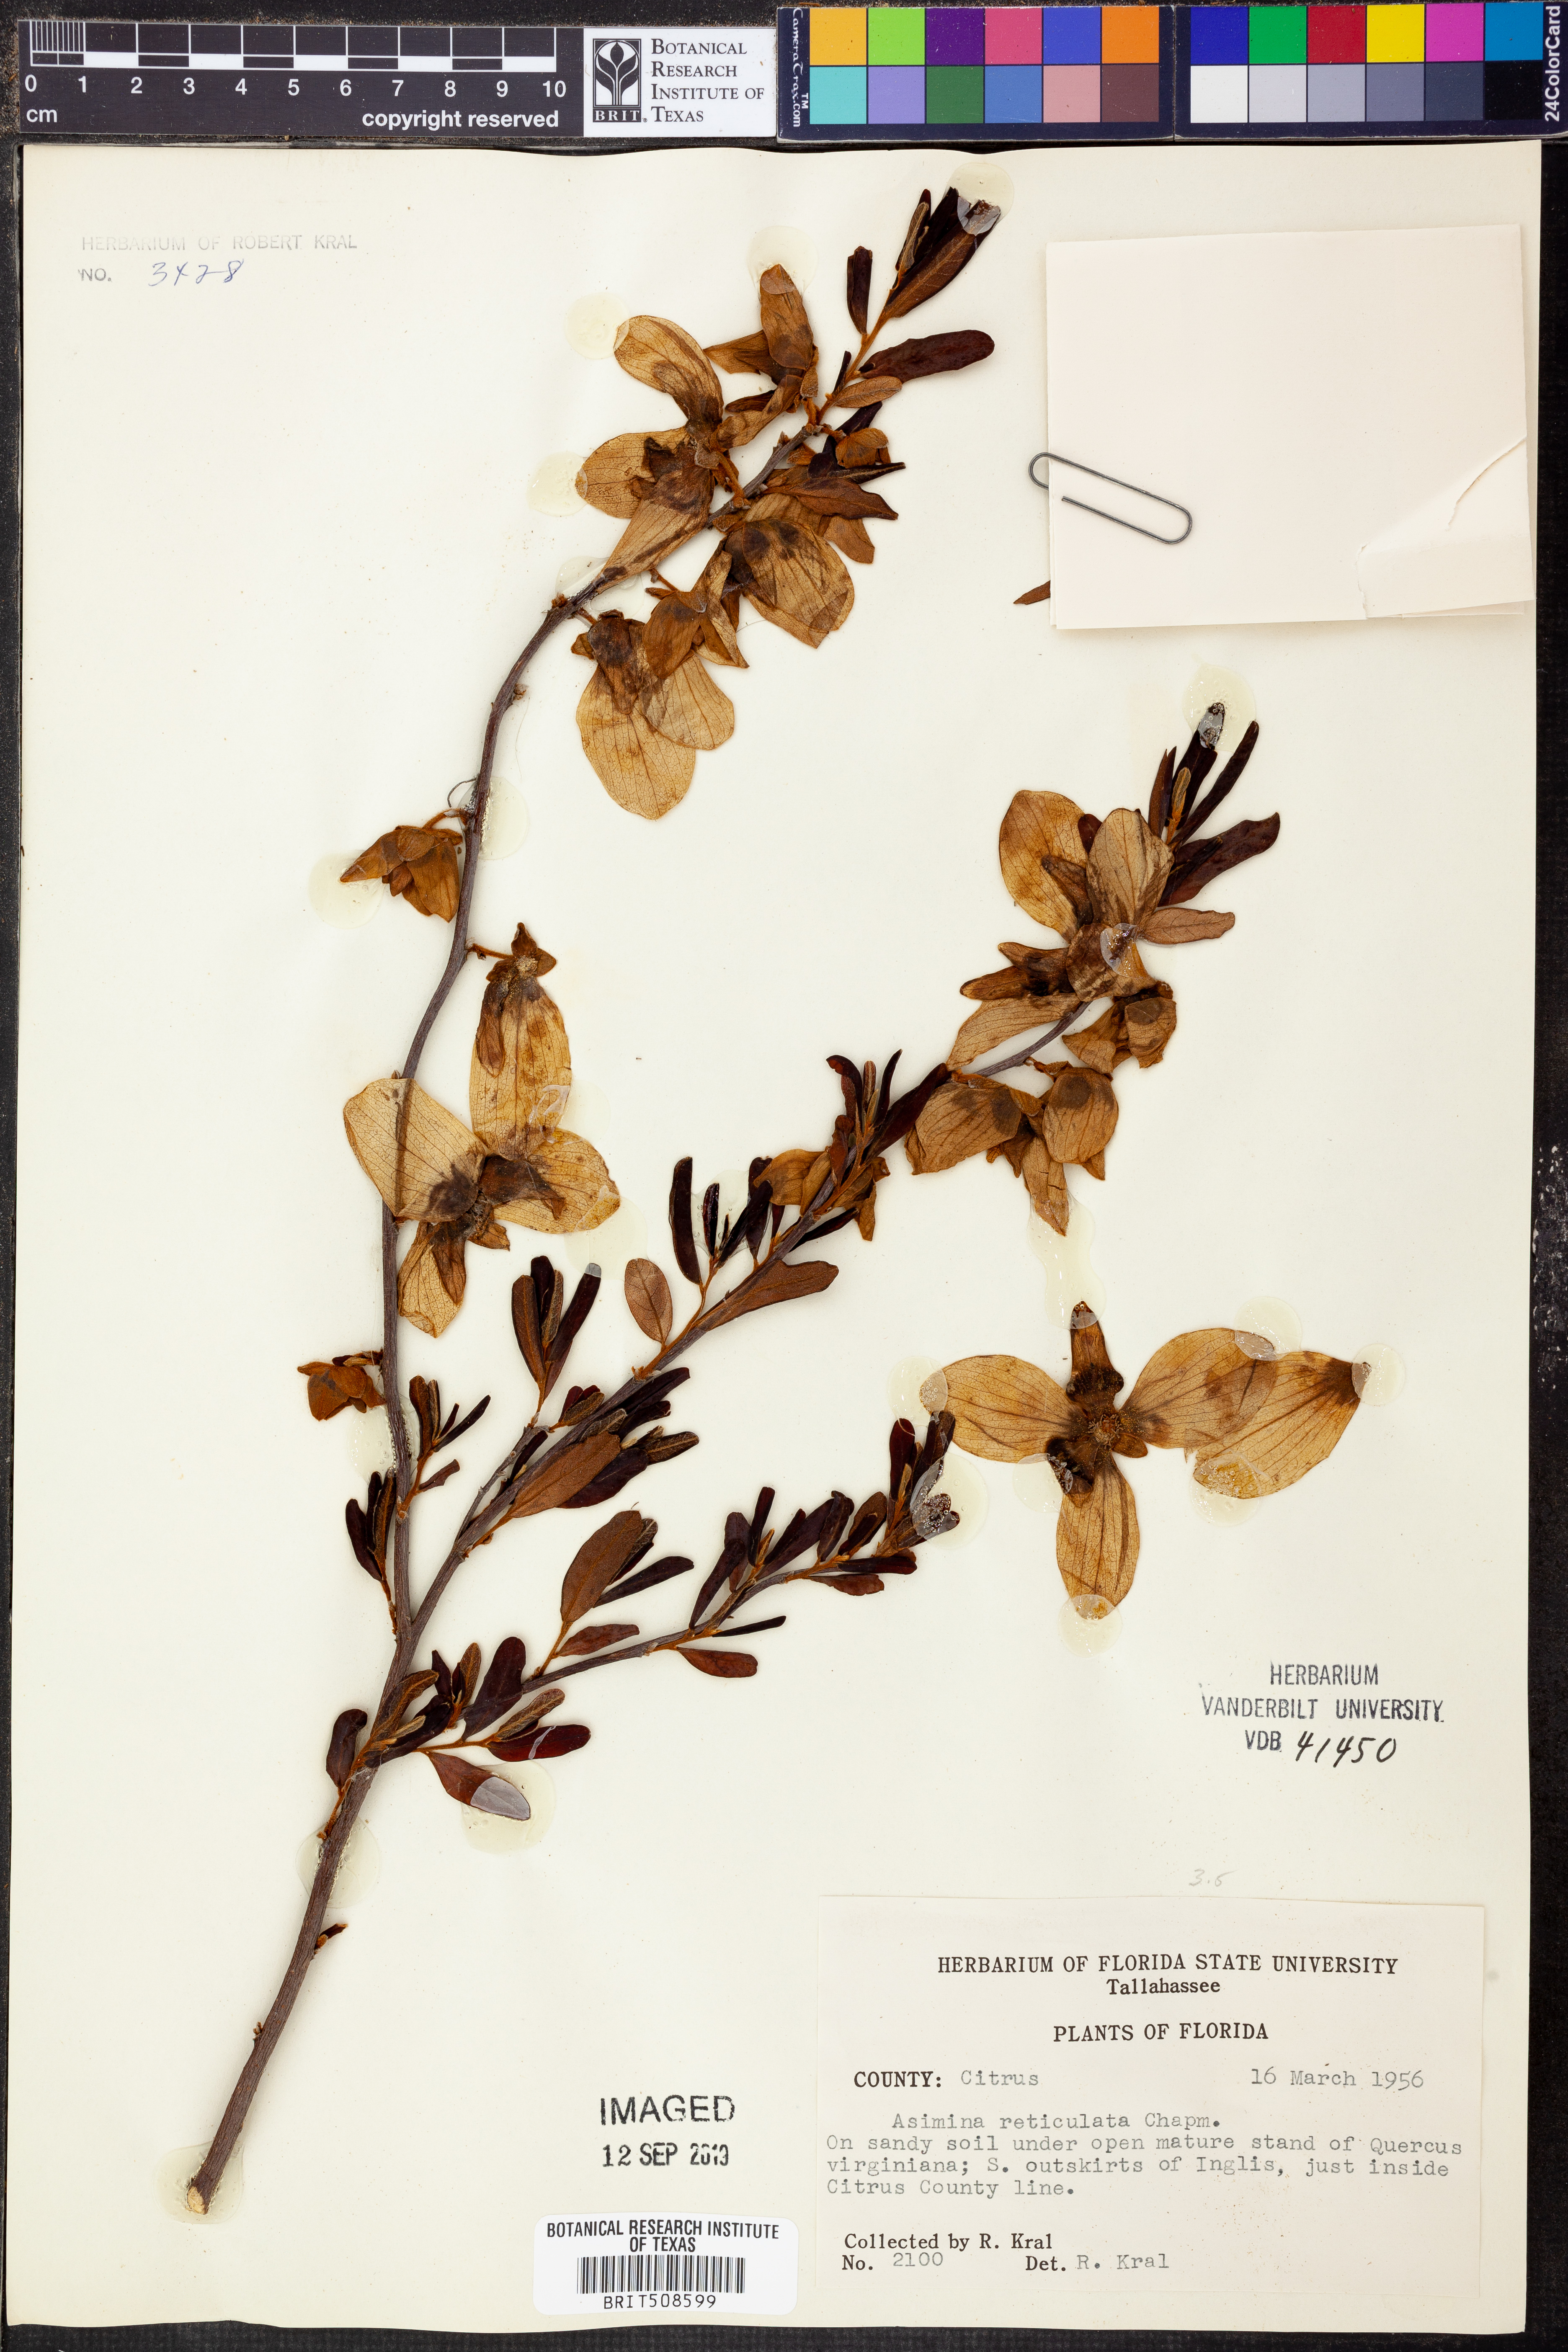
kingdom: Plantae
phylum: Tracheophyta
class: Magnoliopsida
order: Magnoliales
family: Annonaceae
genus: Asimina
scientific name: Asimina reticulata
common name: Flag pawpaw
